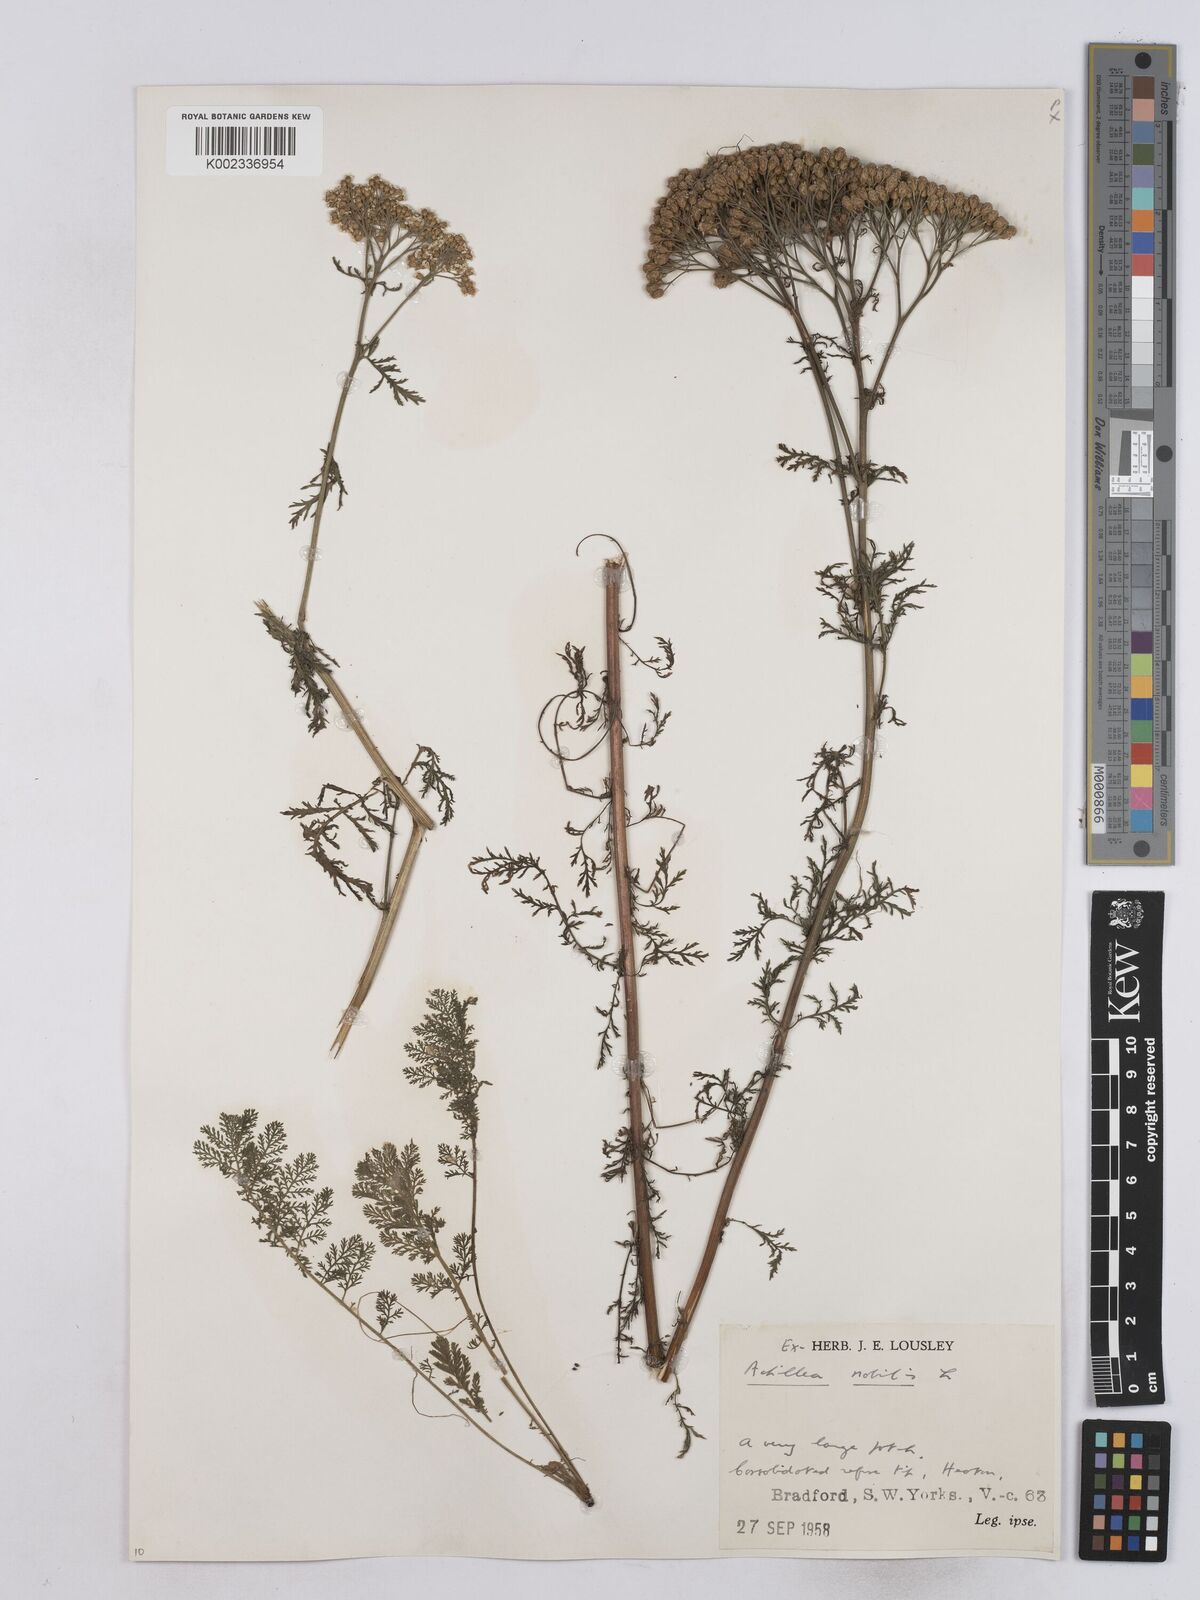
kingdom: Plantae
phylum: Tracheophyta
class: Magnoliopsida
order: Asterales
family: Asteraceae
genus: Achillea
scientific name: Achillea nobilis
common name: Noble yarrow
